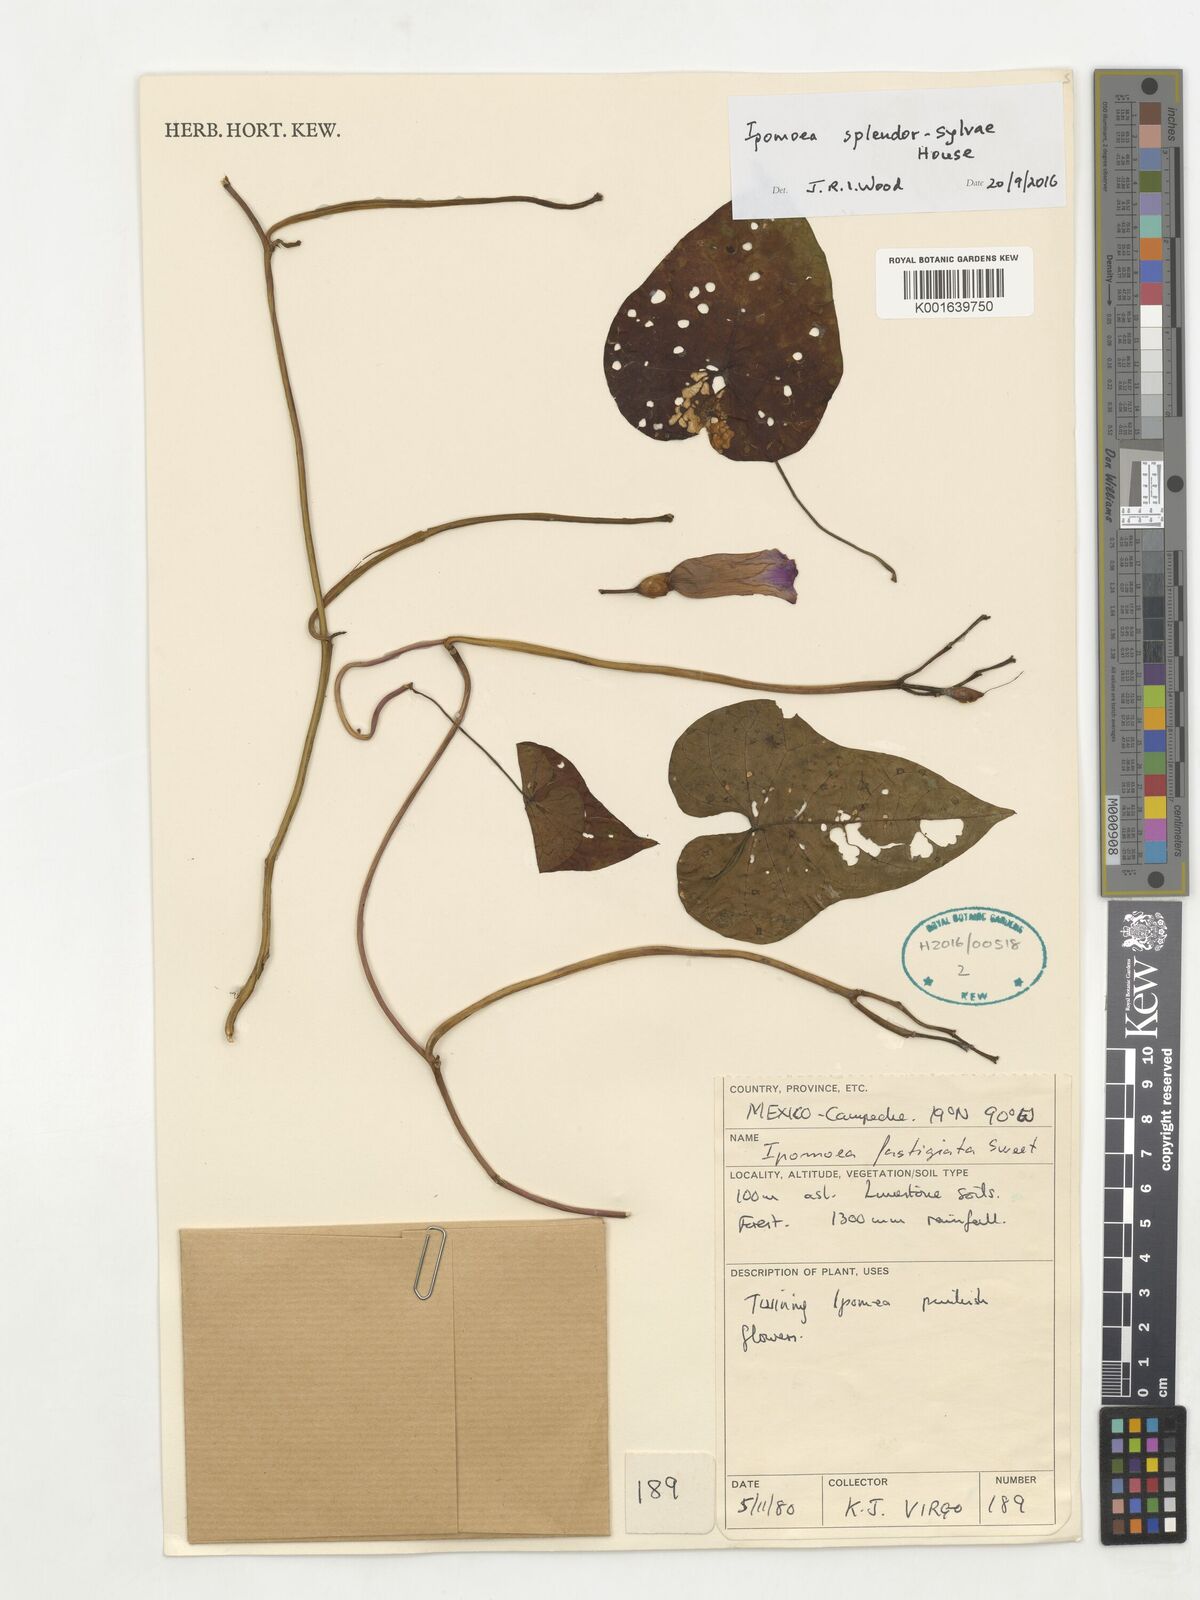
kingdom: Plantae
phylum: Tracheophyta
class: Magnoliopsida
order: Solanales
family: Convolvulaceae
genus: Ipomoea
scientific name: Ipomoea splendor-sylvae
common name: Morning glory
